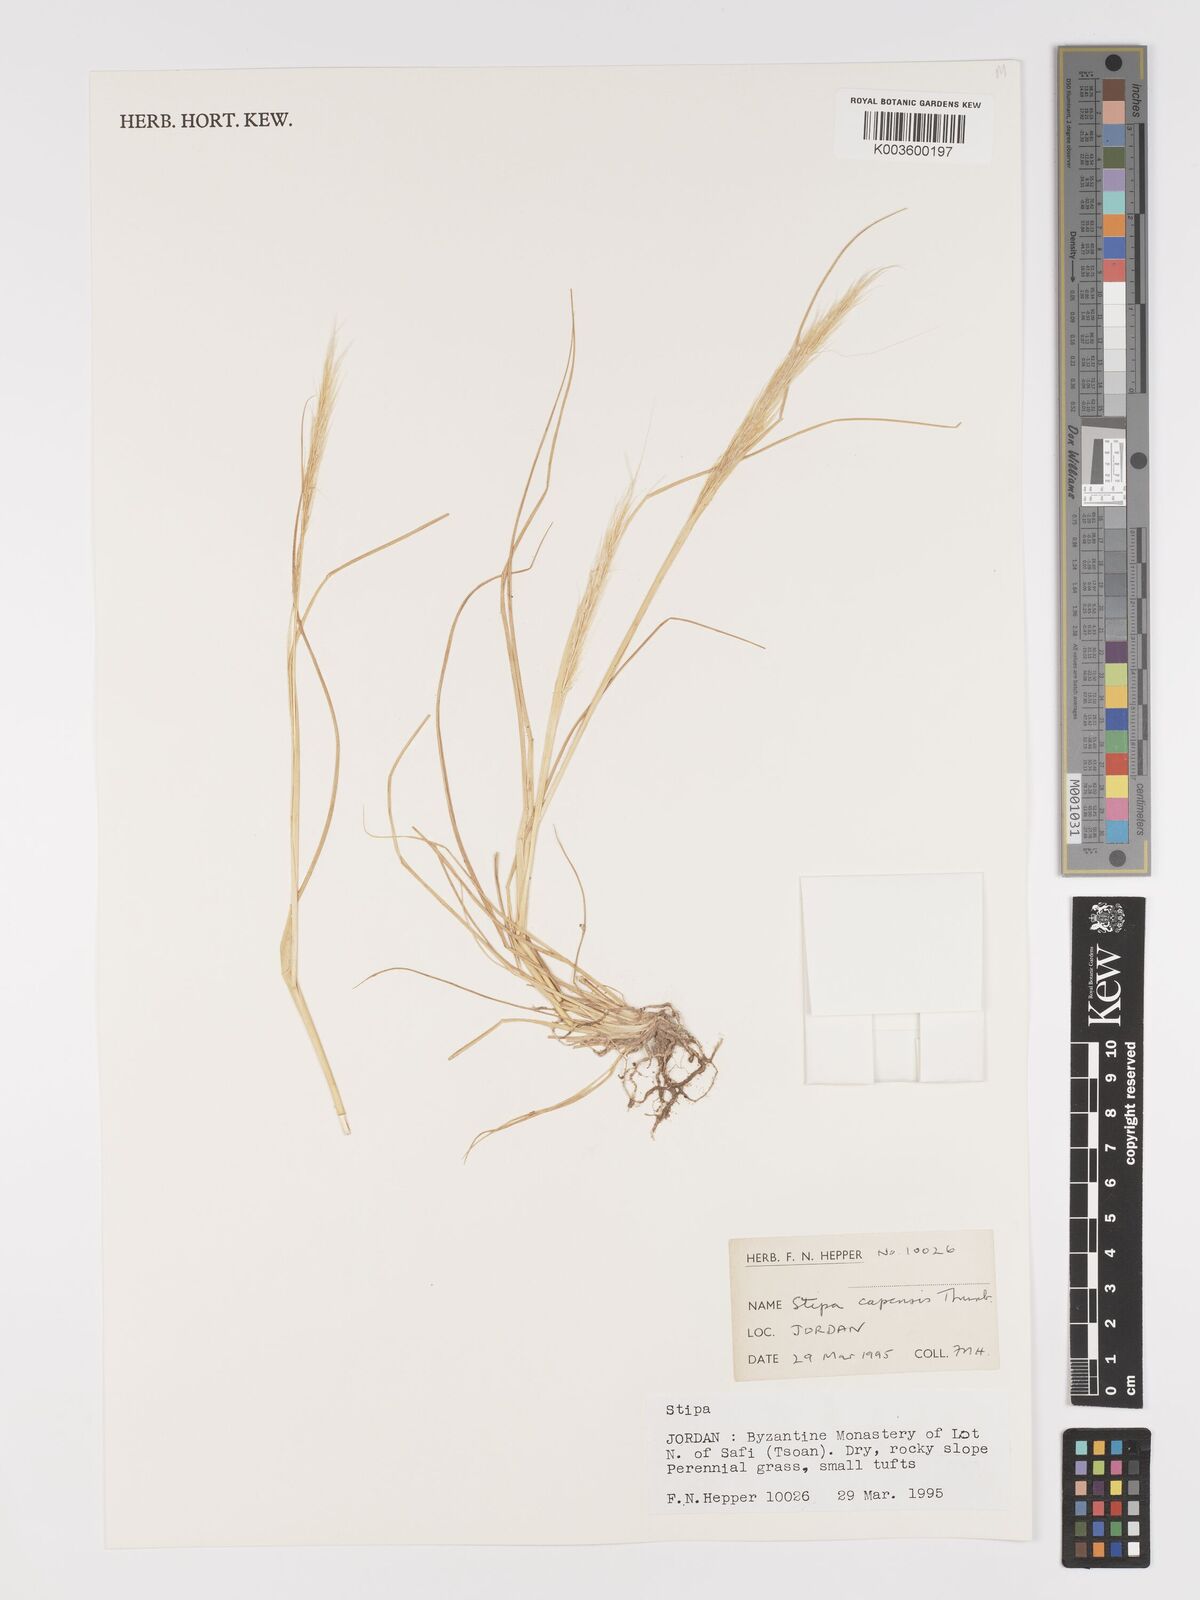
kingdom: Plantae
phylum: Tracheophyta
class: Liliopsida
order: Poales
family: Poaceae
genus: Stipellula
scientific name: Stipellula capensis
